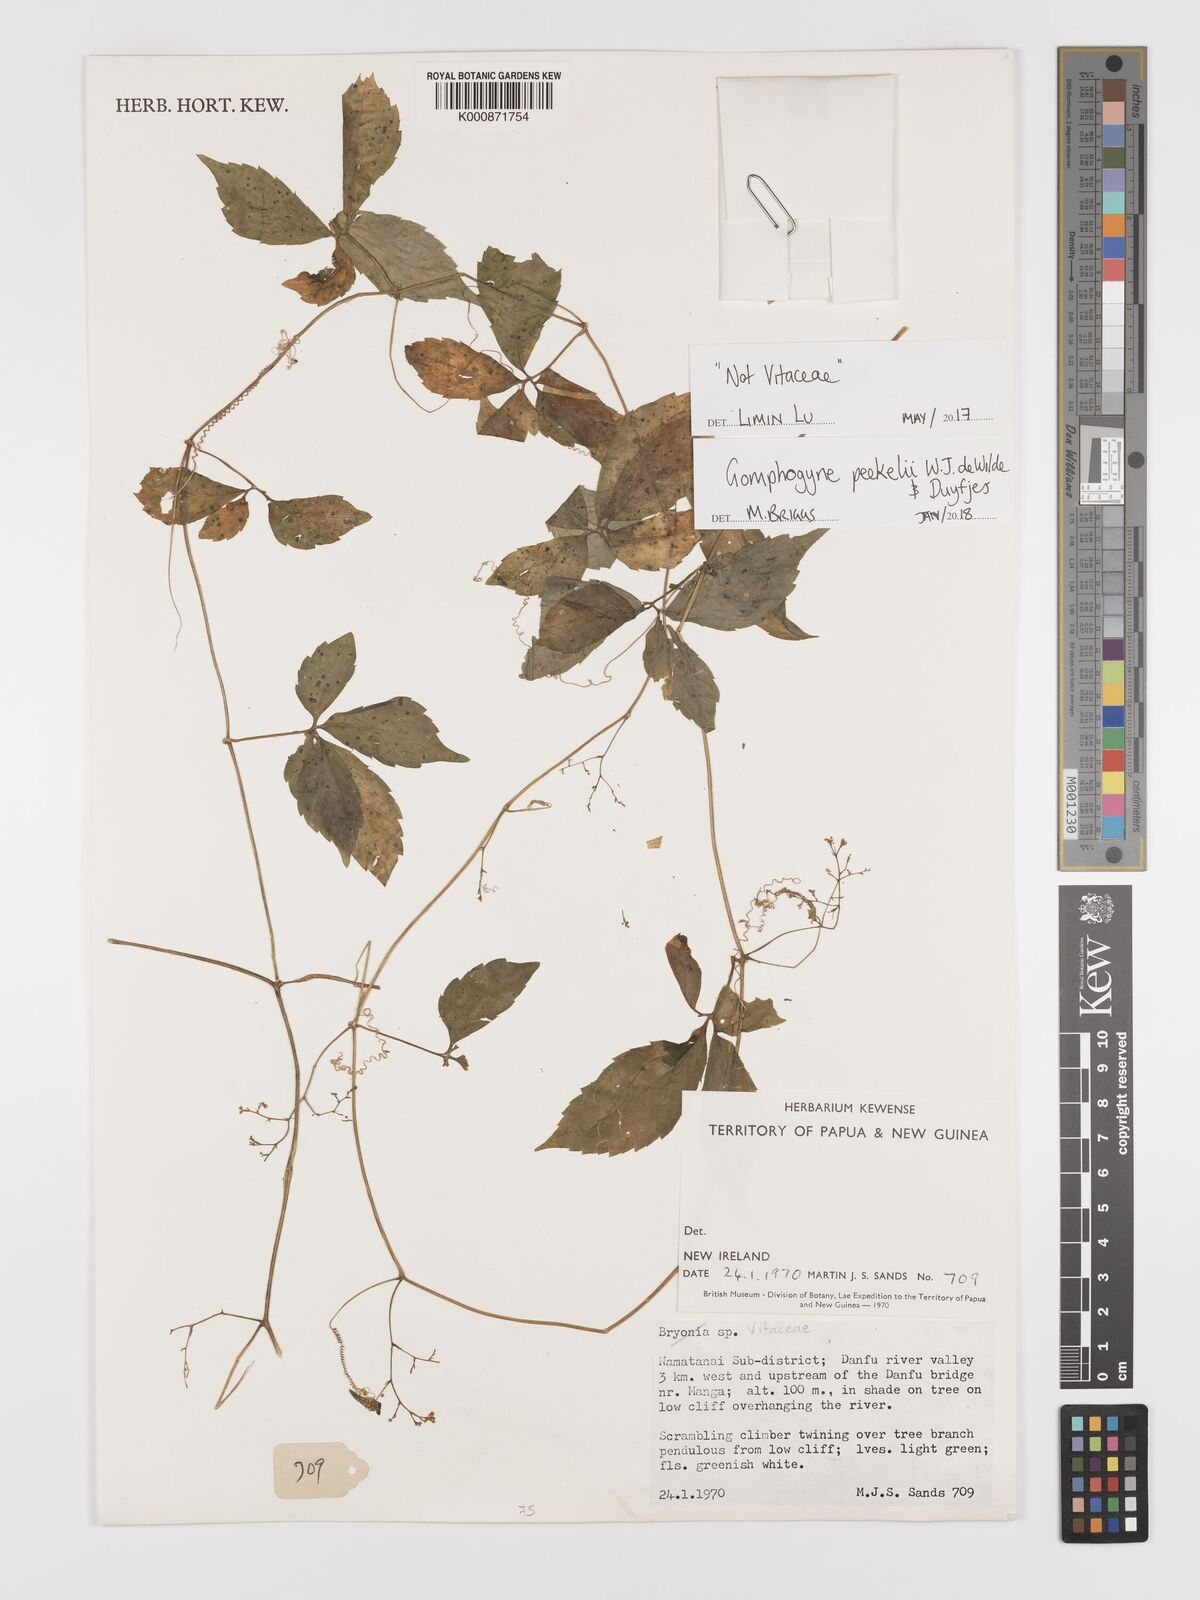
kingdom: Plantae
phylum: Tracheophyta
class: Magnoliopsida
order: Cucurbitales
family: Cucurbitaceae
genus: Hemsleya
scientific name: Hemsleya peekelii
